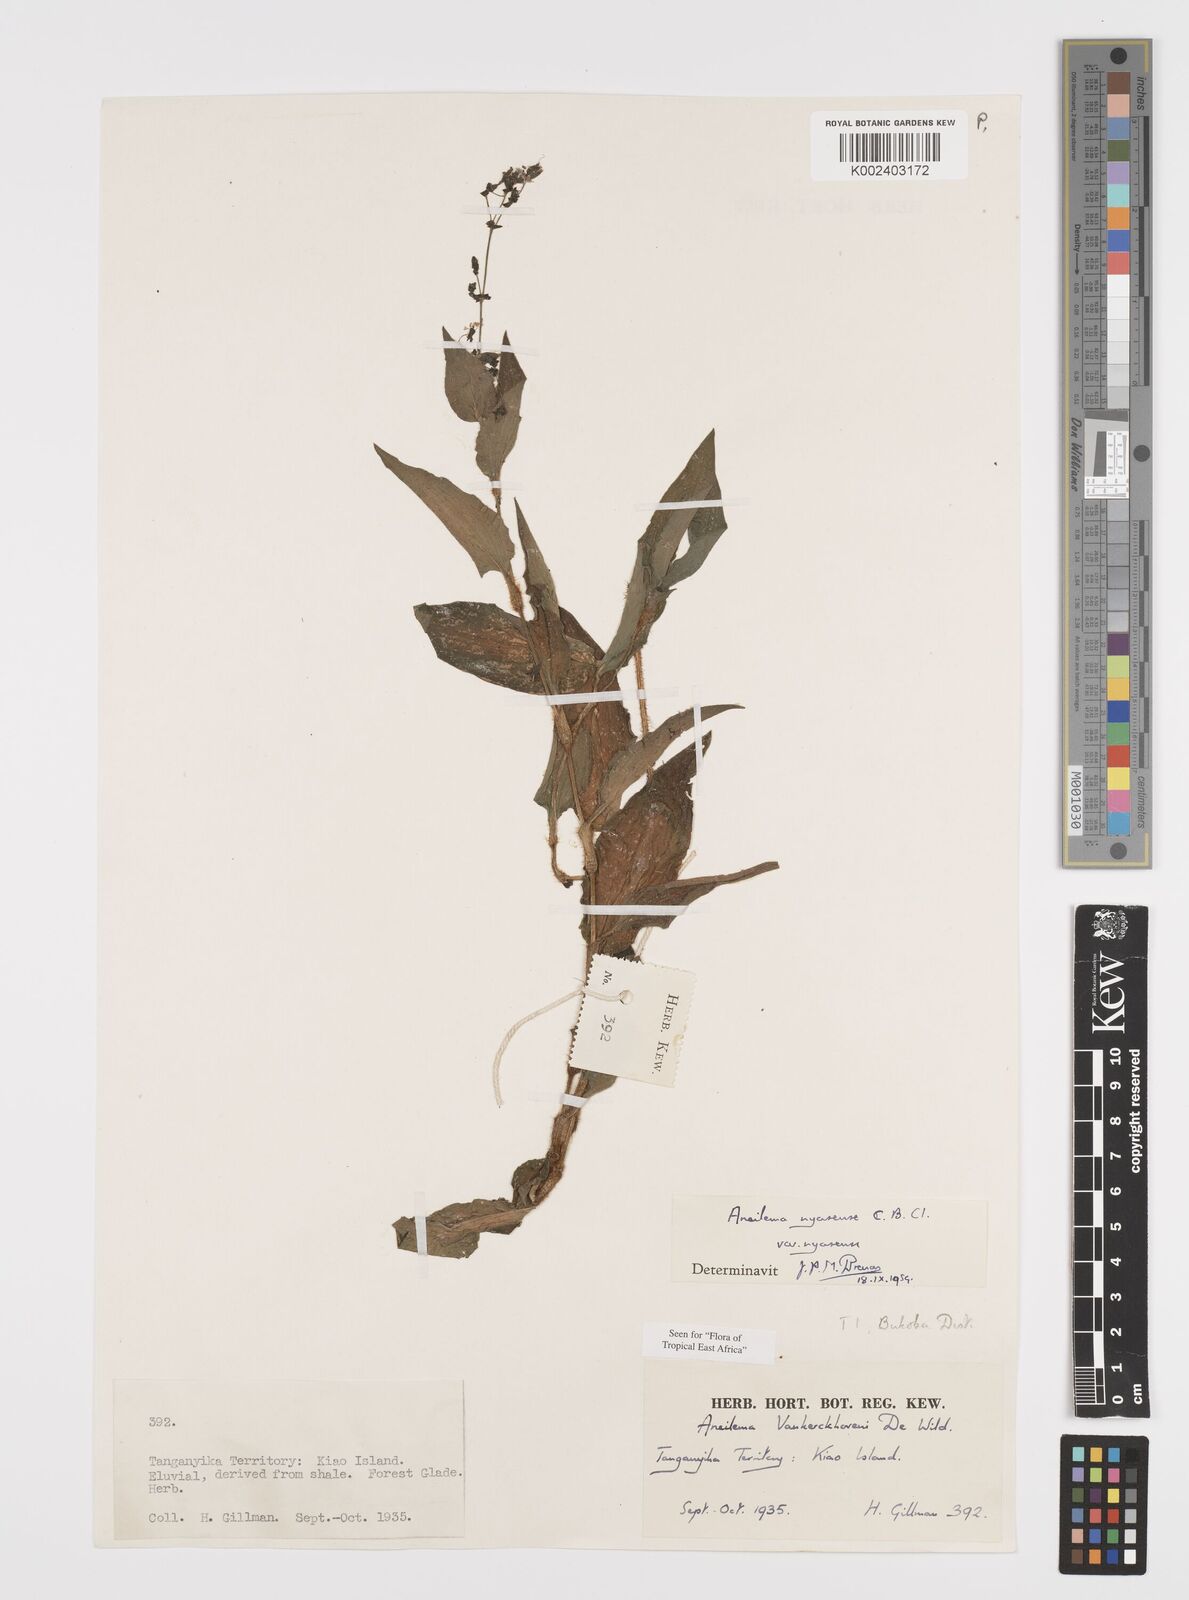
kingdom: Plantae
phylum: Tracheophyta
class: Liliopsida
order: Commelinales
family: Commelinaceae
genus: Aneilema
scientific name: Aneilema nyasense
